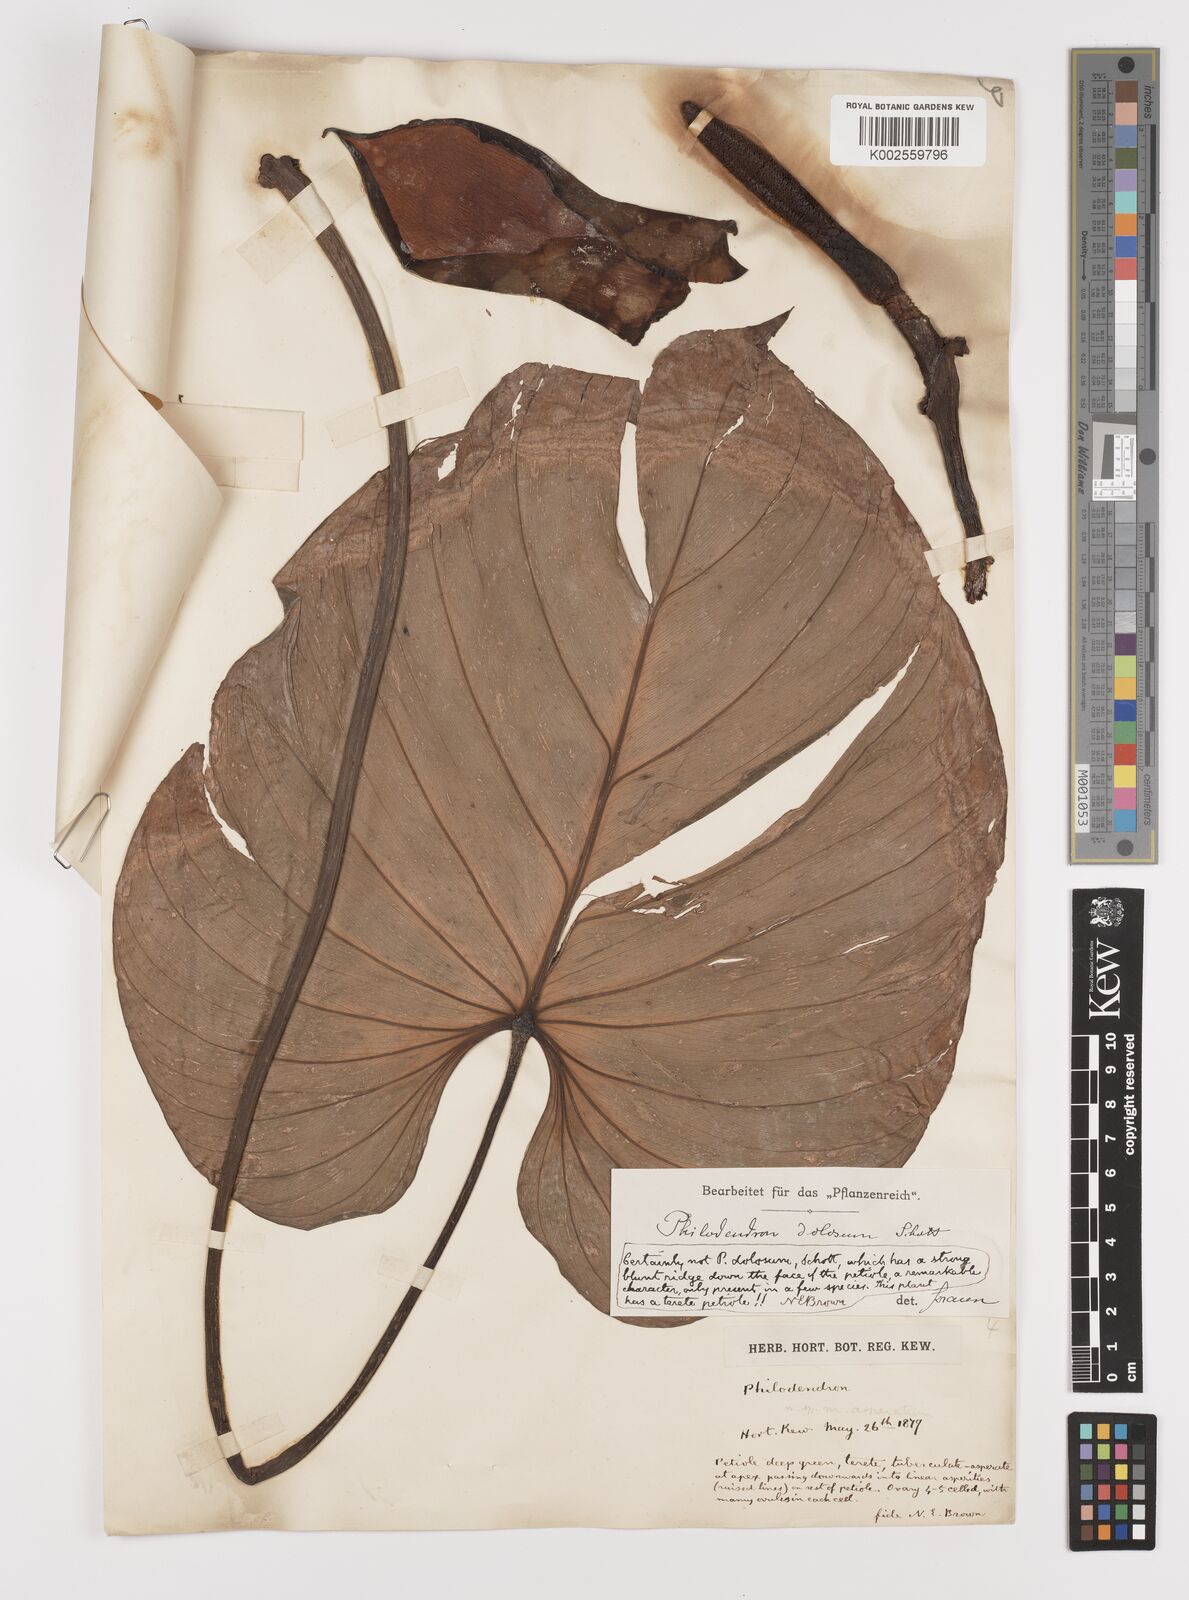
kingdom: Plantae
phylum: Tracheophyta
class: Liliopsida
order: Alismatales
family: Araceae
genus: Philodendron
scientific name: Philodendron ornatum
